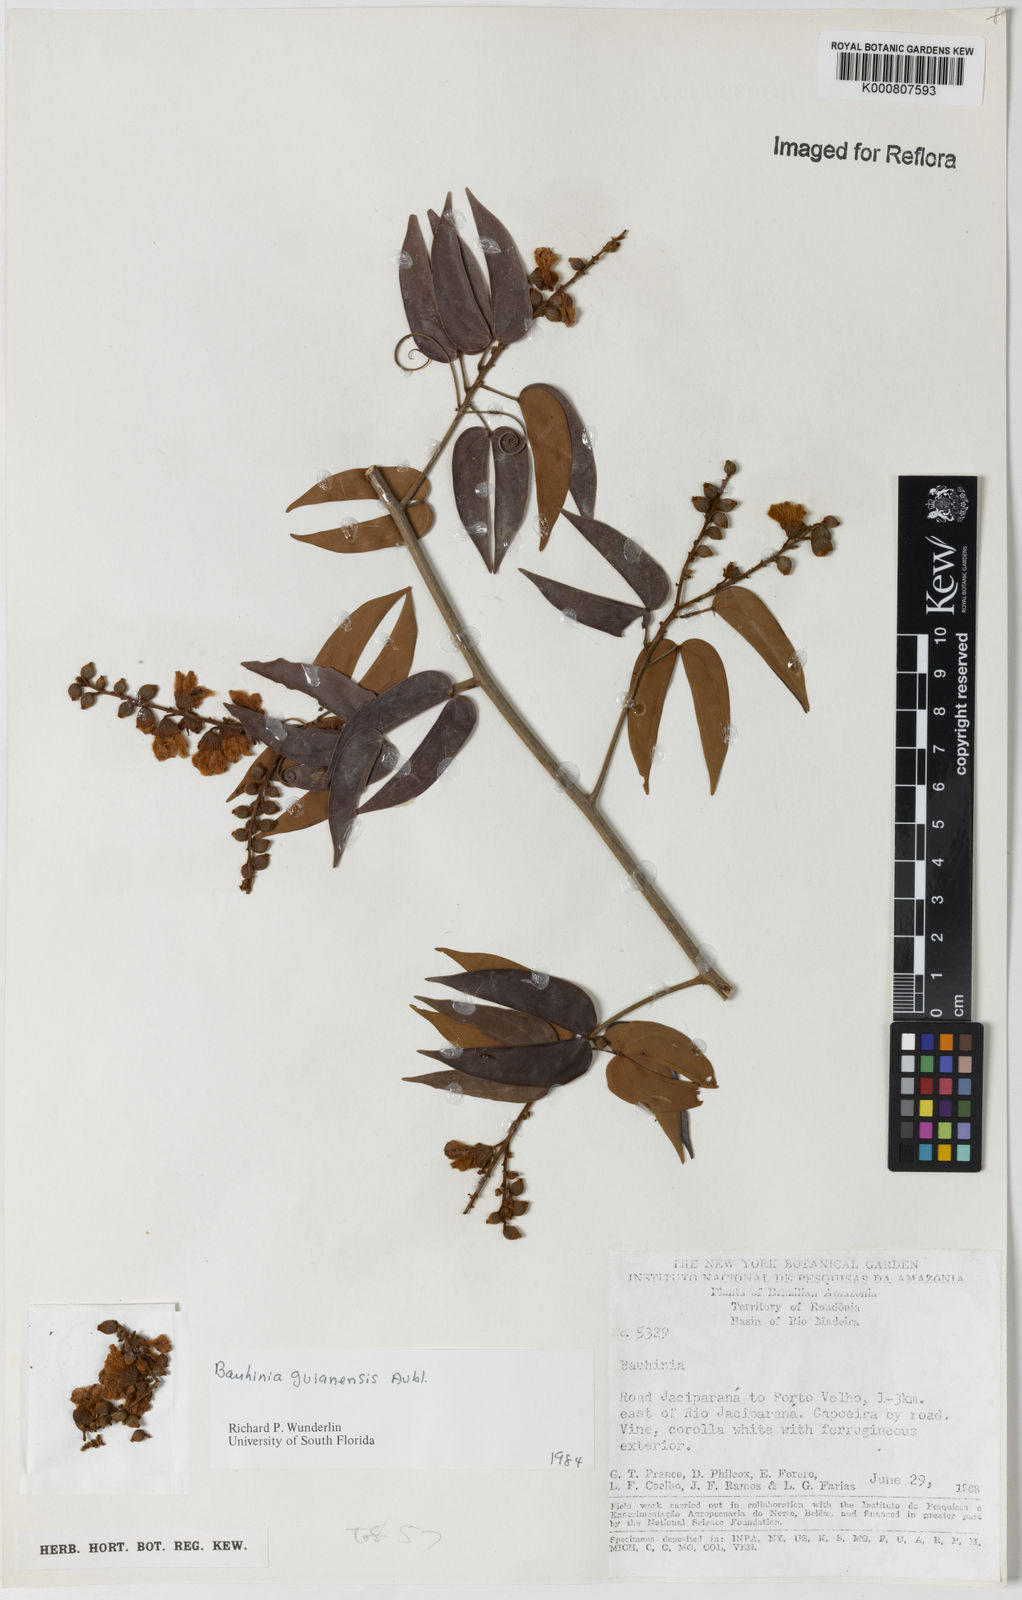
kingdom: Plantae
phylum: Tracheophyta
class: Magnoliopsida
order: Fabales
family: Fabaceae
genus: Schnella
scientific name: Schnella guianensis
